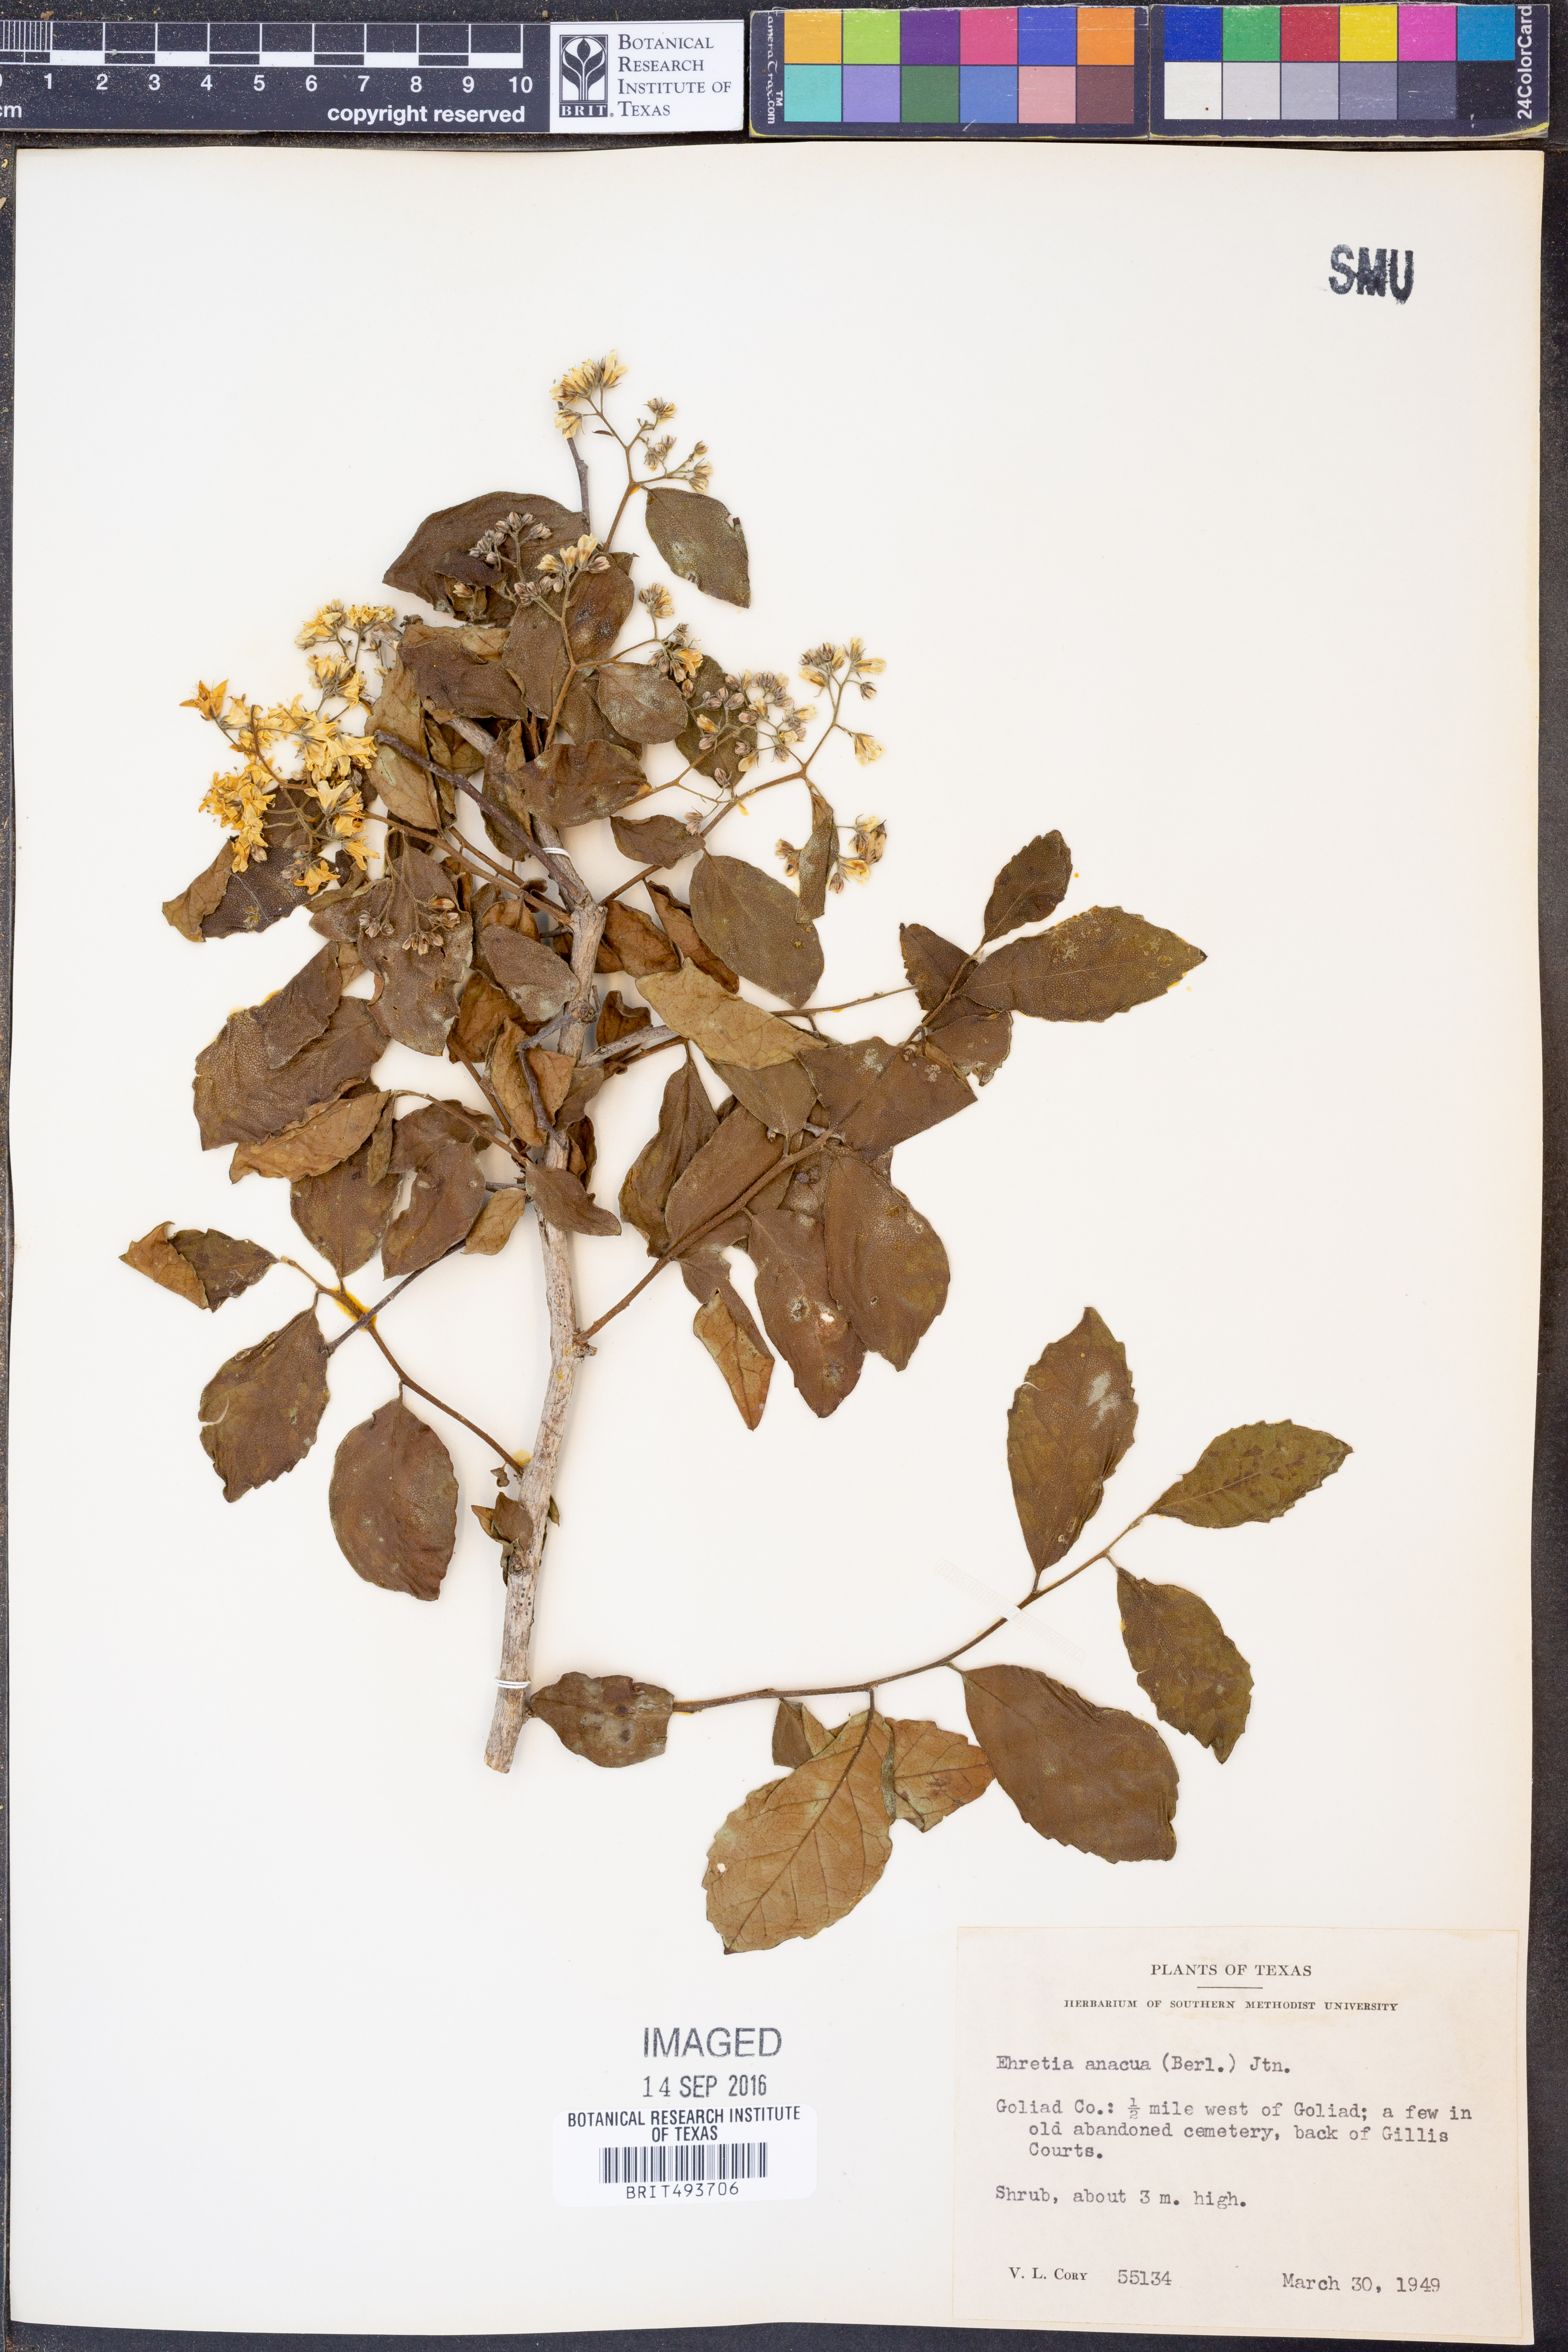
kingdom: Plantae
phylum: Tracheophyta
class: Magnoliopsida
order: Boraginales
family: Ehretiaceae
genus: Ehretia
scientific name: Ehretia anacua
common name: Sugarberry
